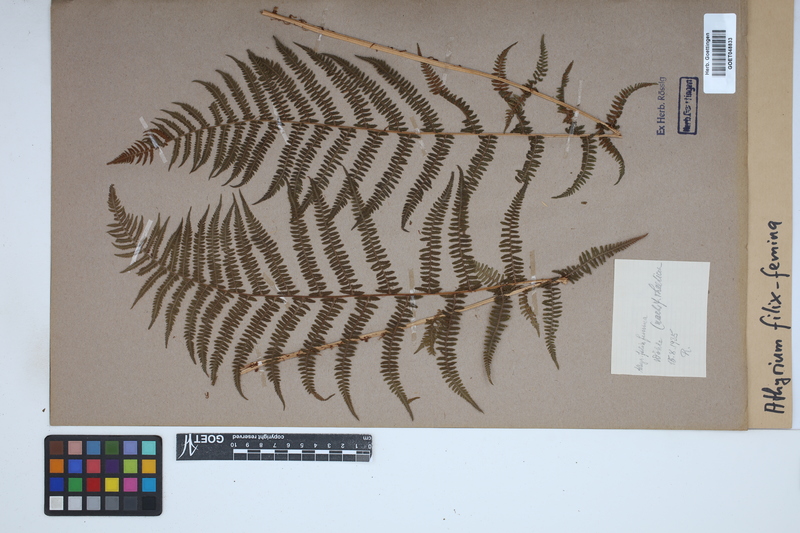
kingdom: Plantae
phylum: Tracheophyta
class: Polypodiopsida
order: Polypodiales
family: Athyriaceae
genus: Athyrium
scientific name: Athyrium filix-femina
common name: Lady fern
